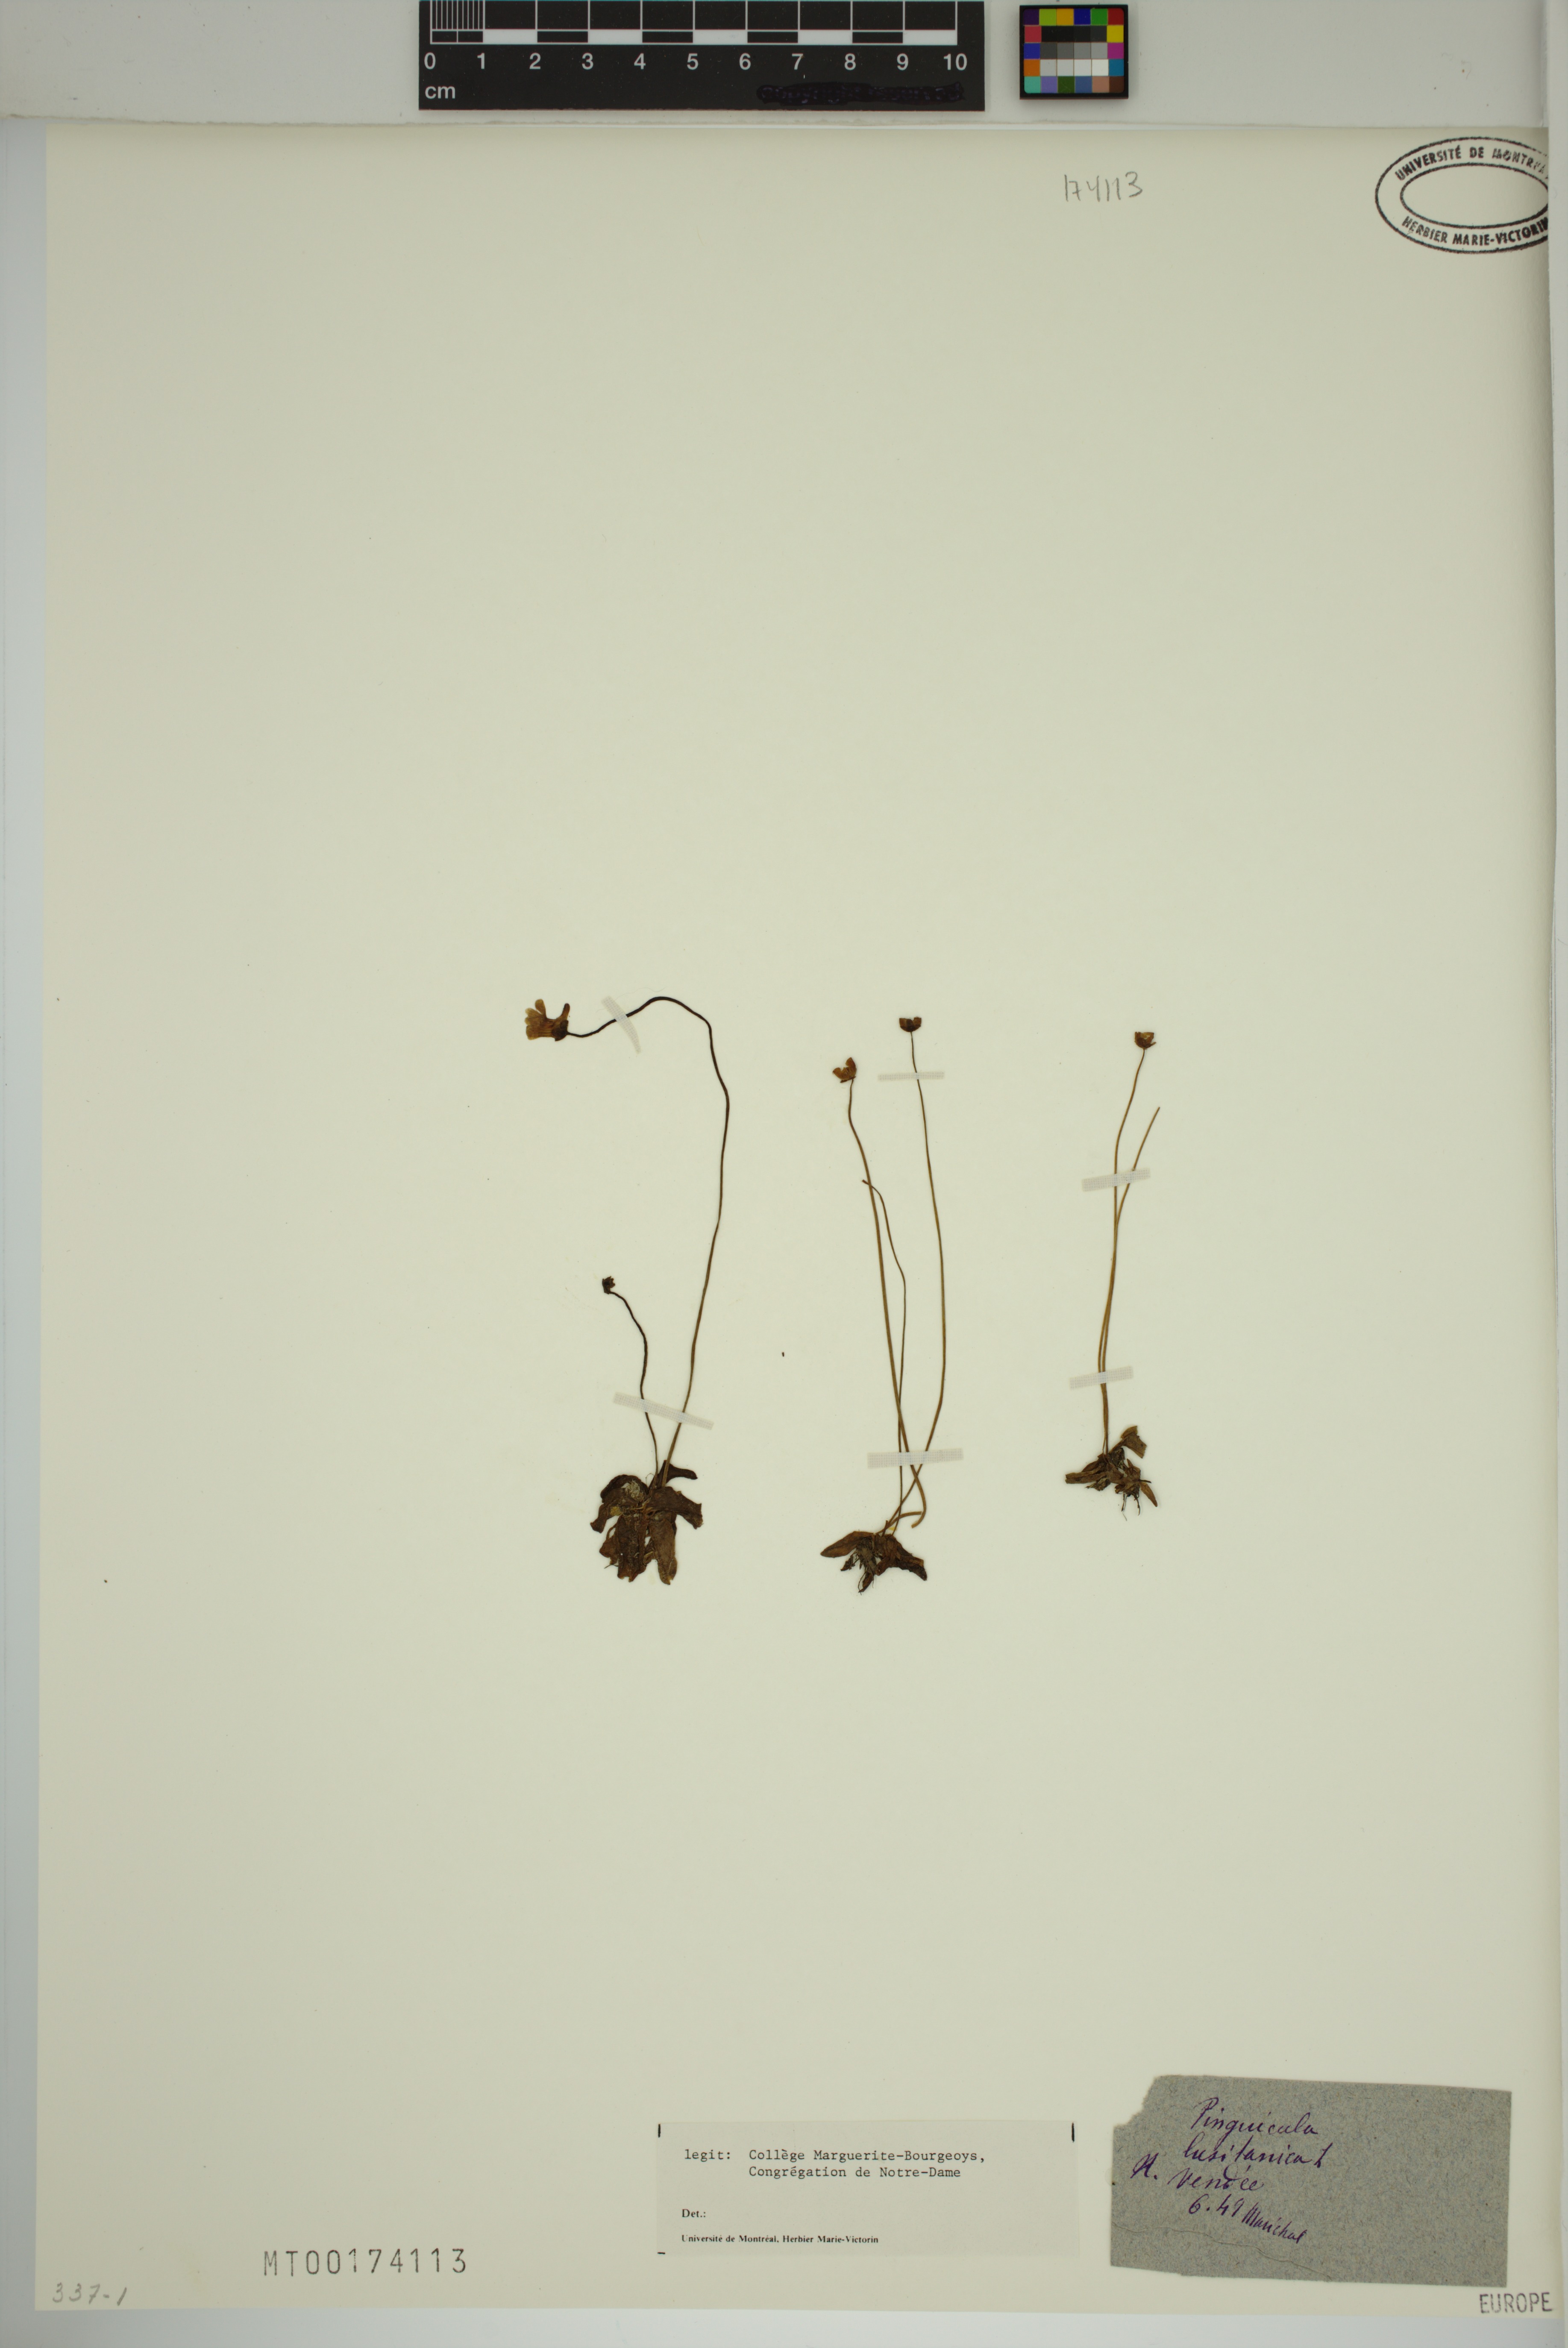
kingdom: Plantae
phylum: Tracheophyta
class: Magnoliopsida
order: Lamiales
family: Lentibulariaceae
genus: Pinguicula
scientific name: Pinguicula lusitanica
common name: Pale butterwort
